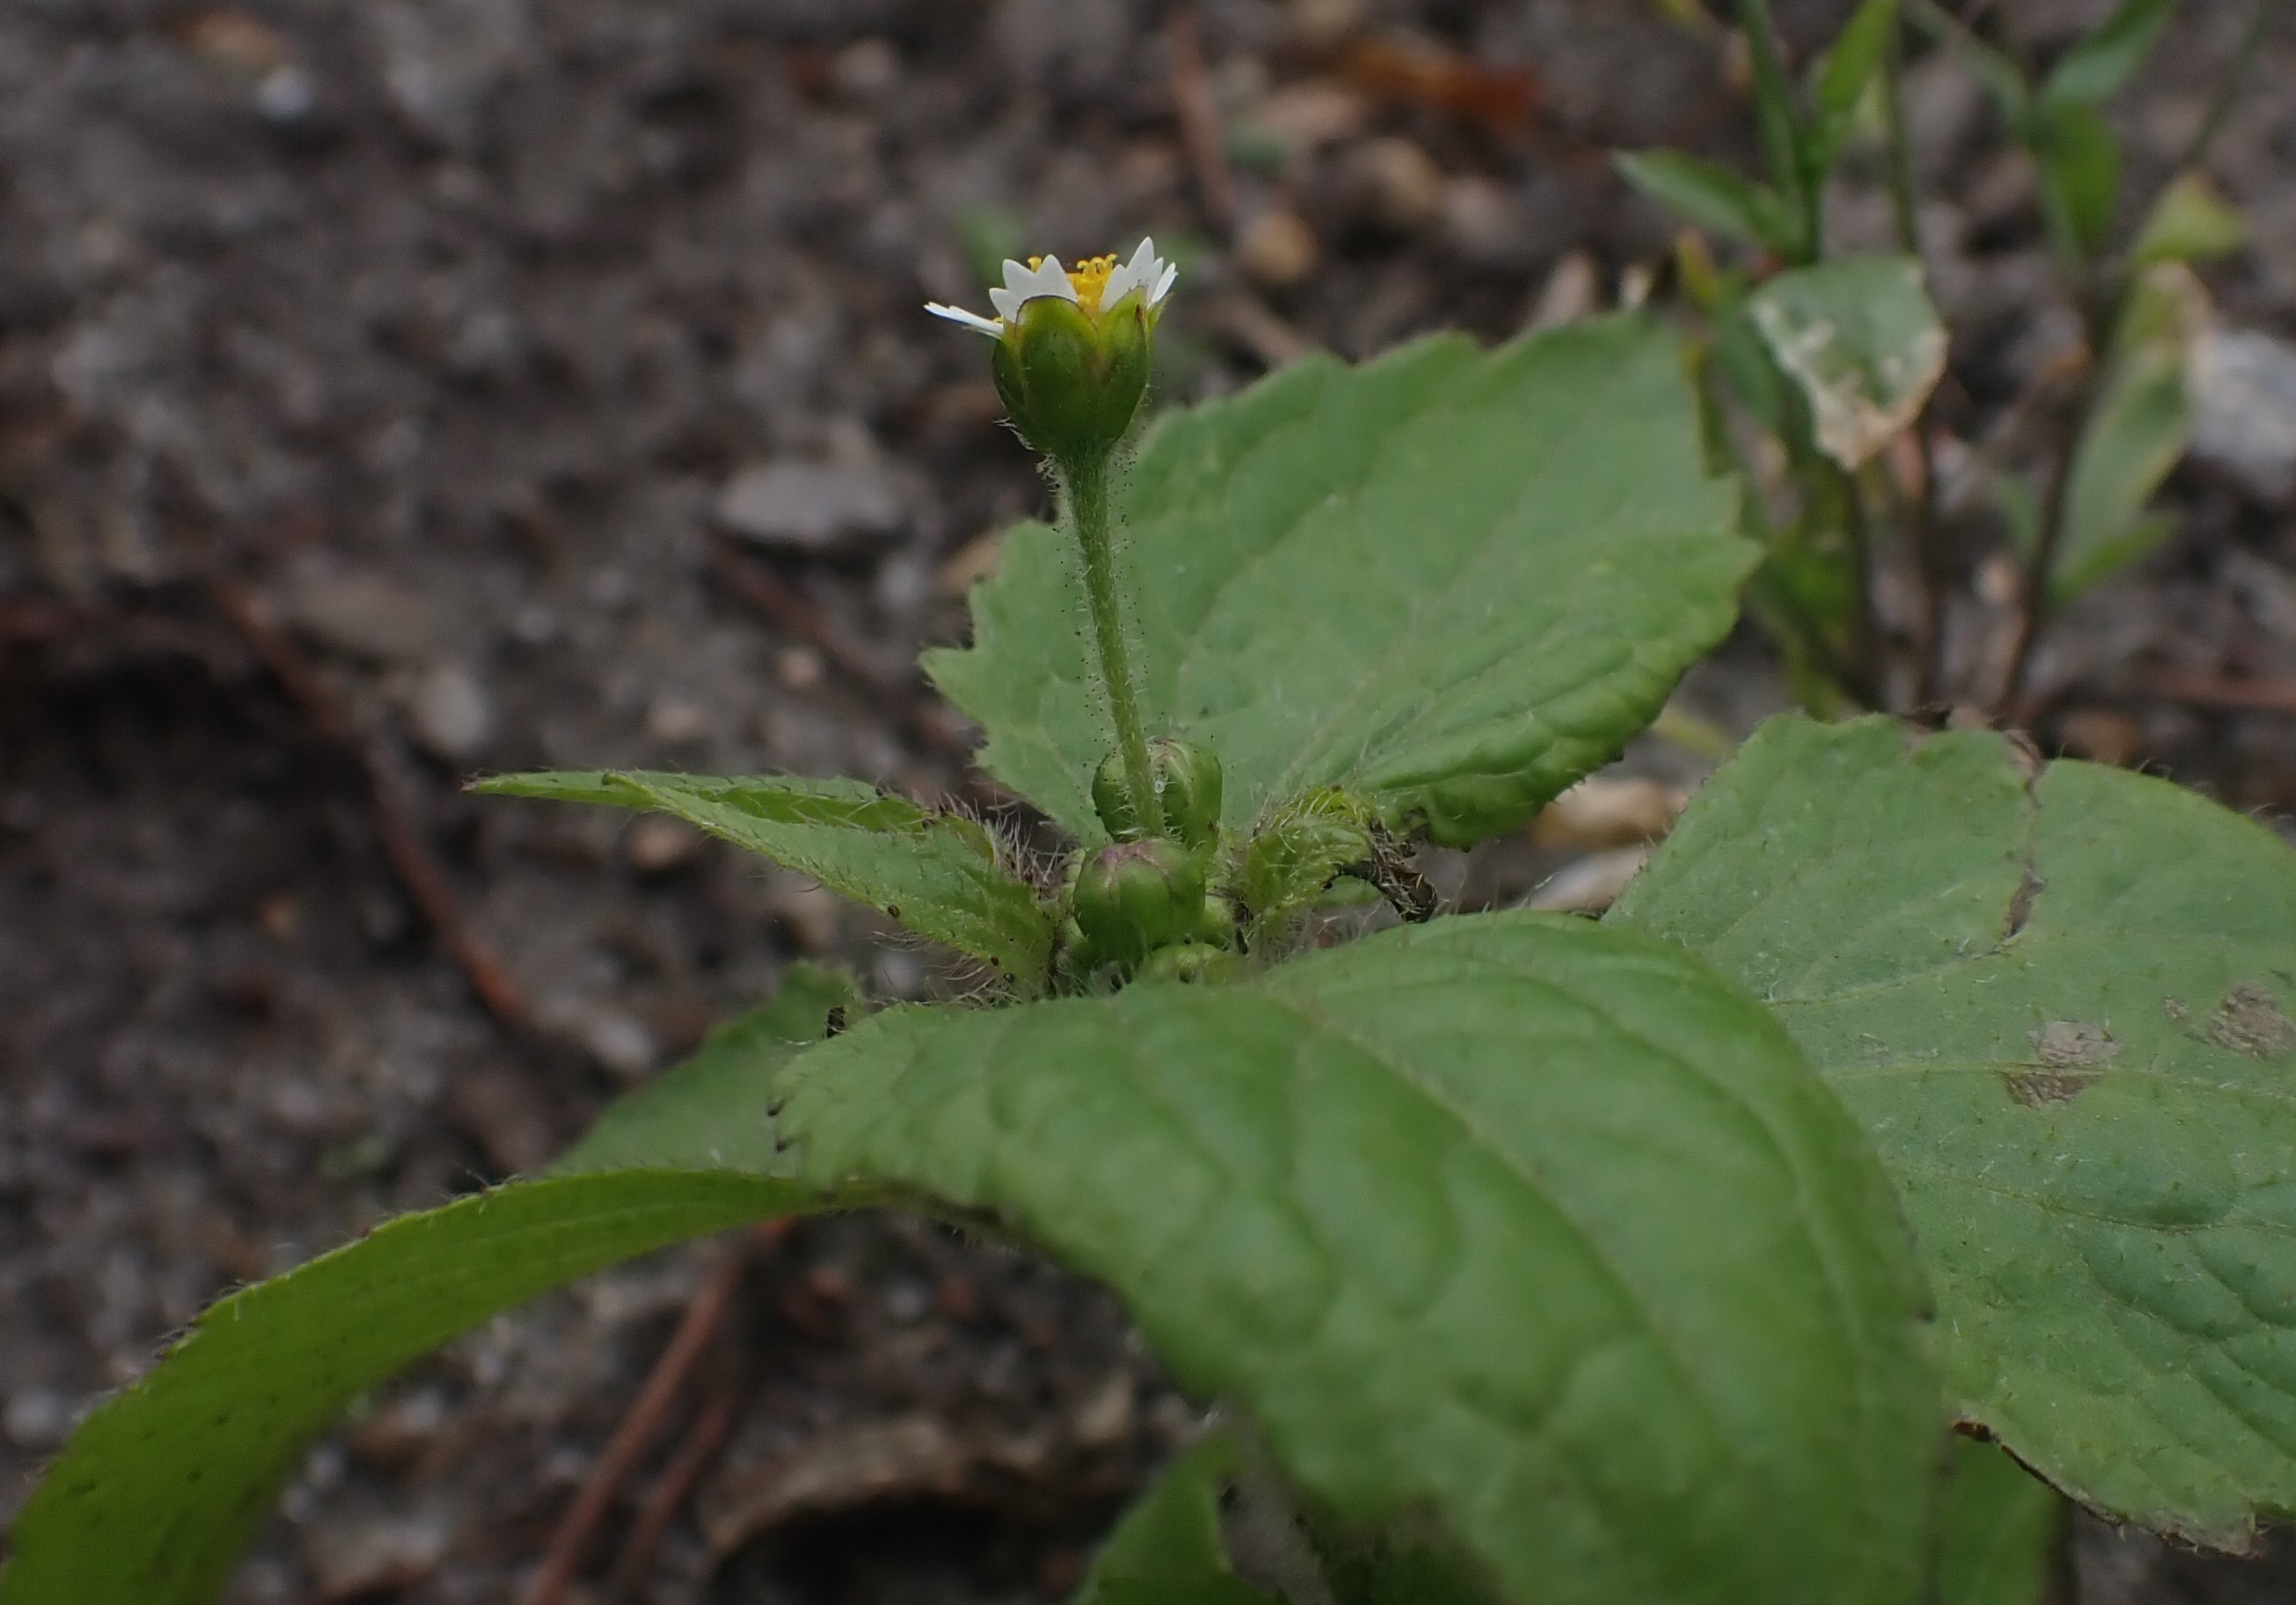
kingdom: Plantae
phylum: Tracheophyta
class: Magnoliopsida
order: Asterales
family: Asteraceae
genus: Galinsoga
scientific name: Galinsoga quadriradiata
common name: Kirtel-kortstråle
